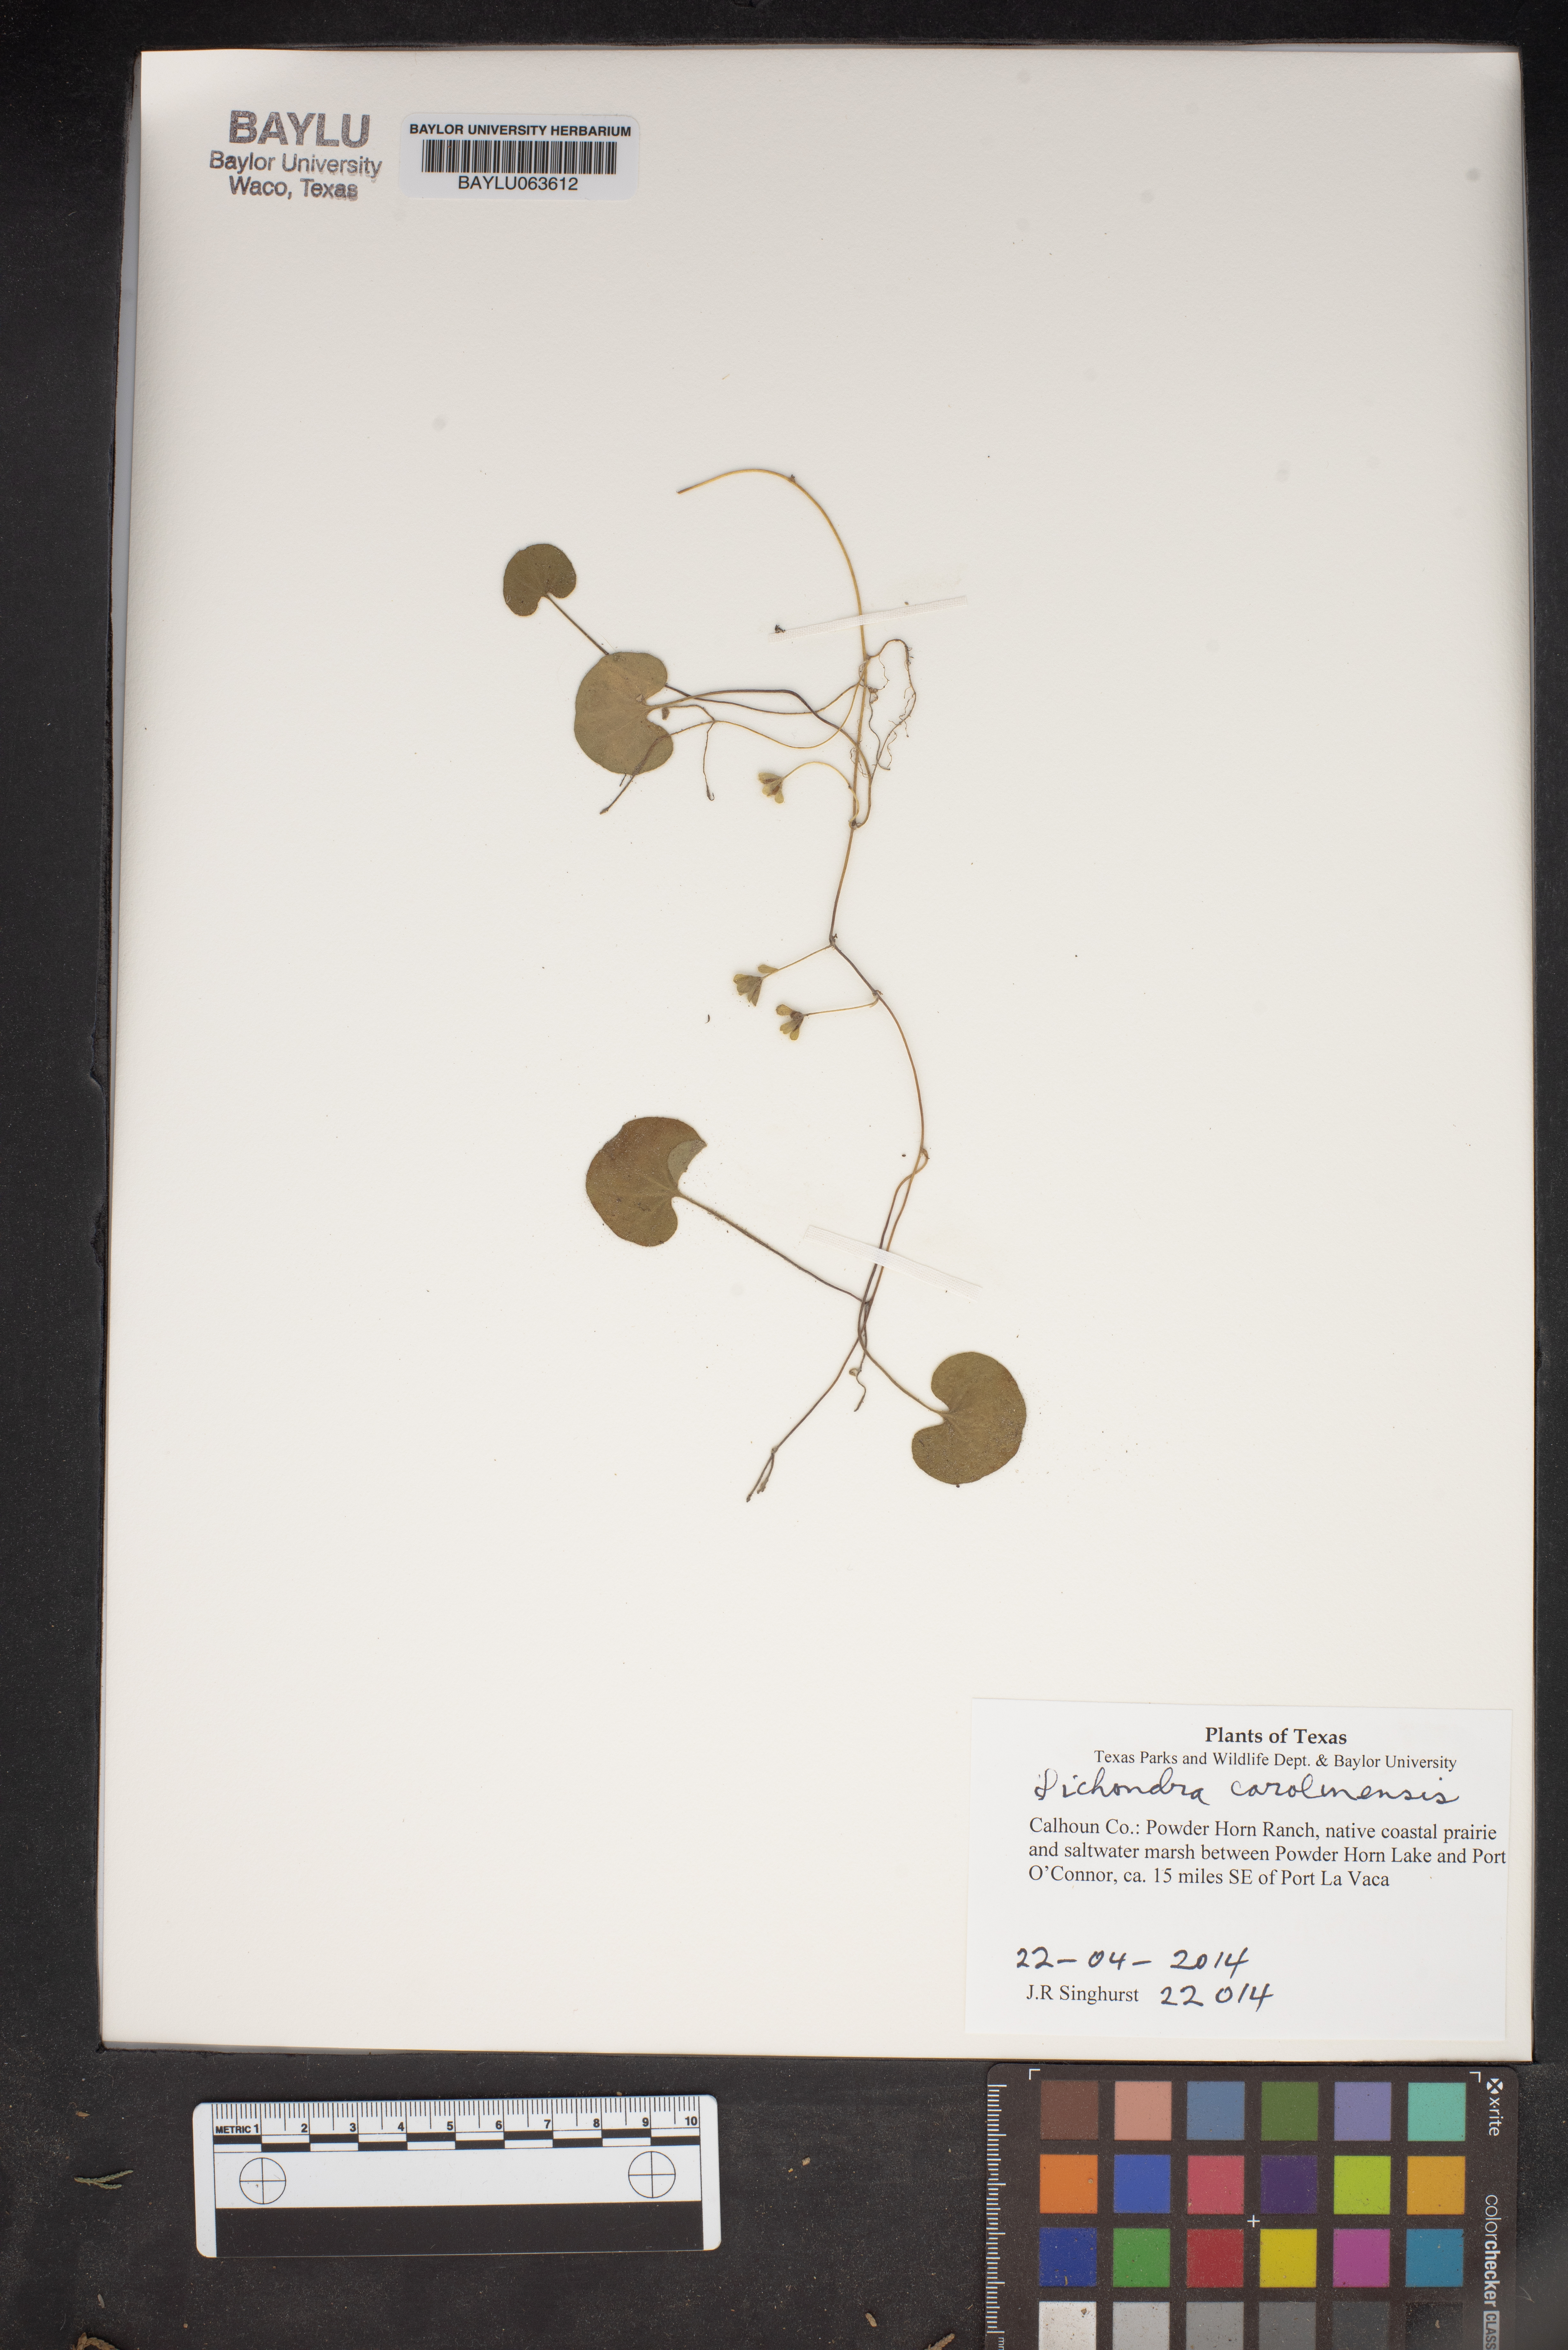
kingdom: Plantae
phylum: Tracheophyta
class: Magnoliopsida
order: Solanales
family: Convolvulaceae
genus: Dichondra
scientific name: Dichondra carolinensis
